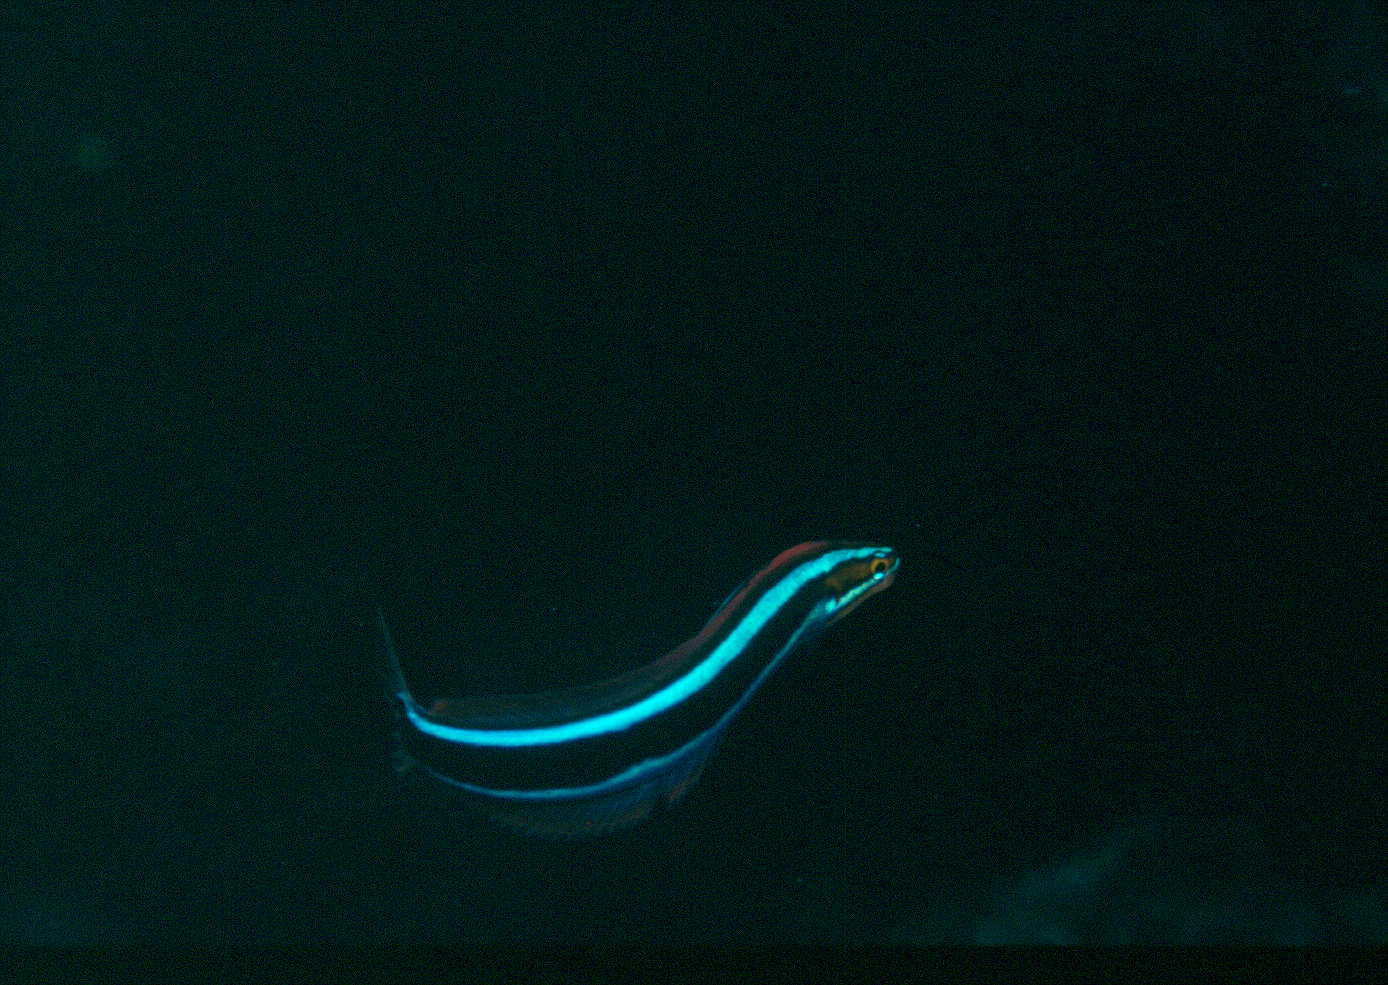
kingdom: Animalia
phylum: Chordata
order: Perciformes
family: Blenniidae
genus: Plagiotremus
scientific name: Plagiotremus rhinorhynchos
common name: Bluestriped fangblenny
